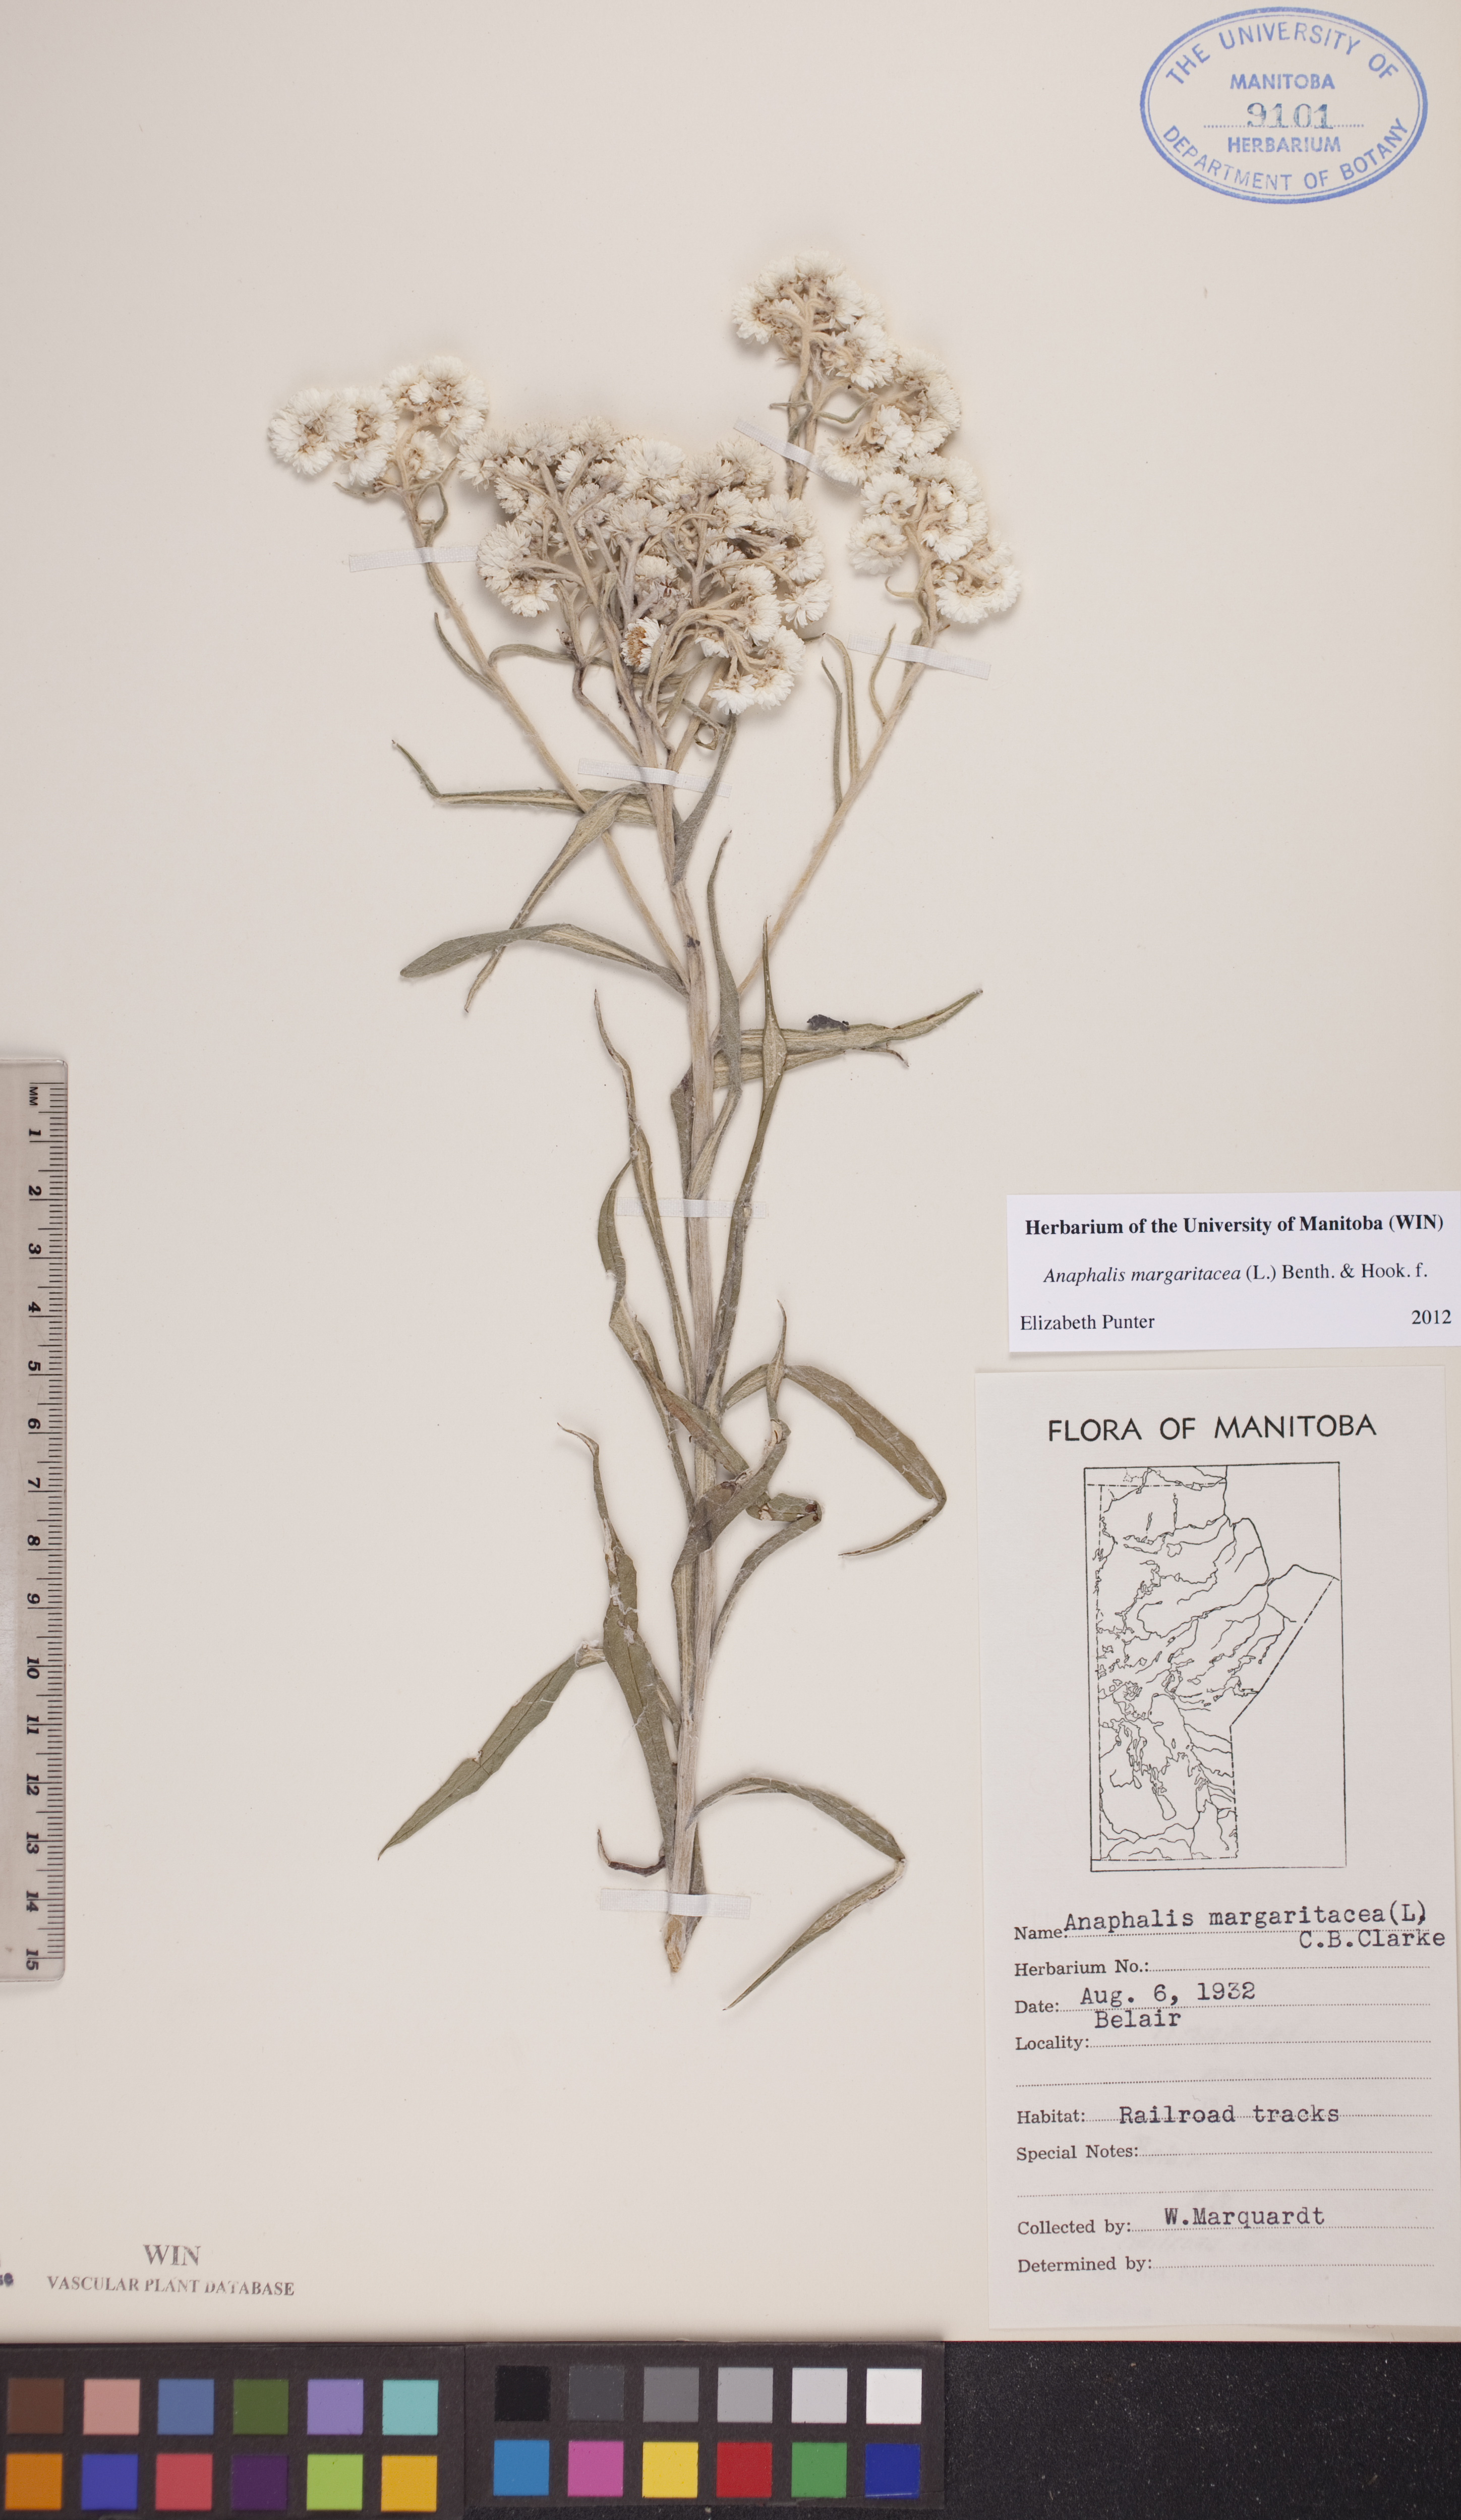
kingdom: Plantae
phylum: Tracheophyta
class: Magnoliopsida
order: Asterales
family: Asteraceae
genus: Anaphalis
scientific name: Anaphalis margaritacea
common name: Pearly everlasting
